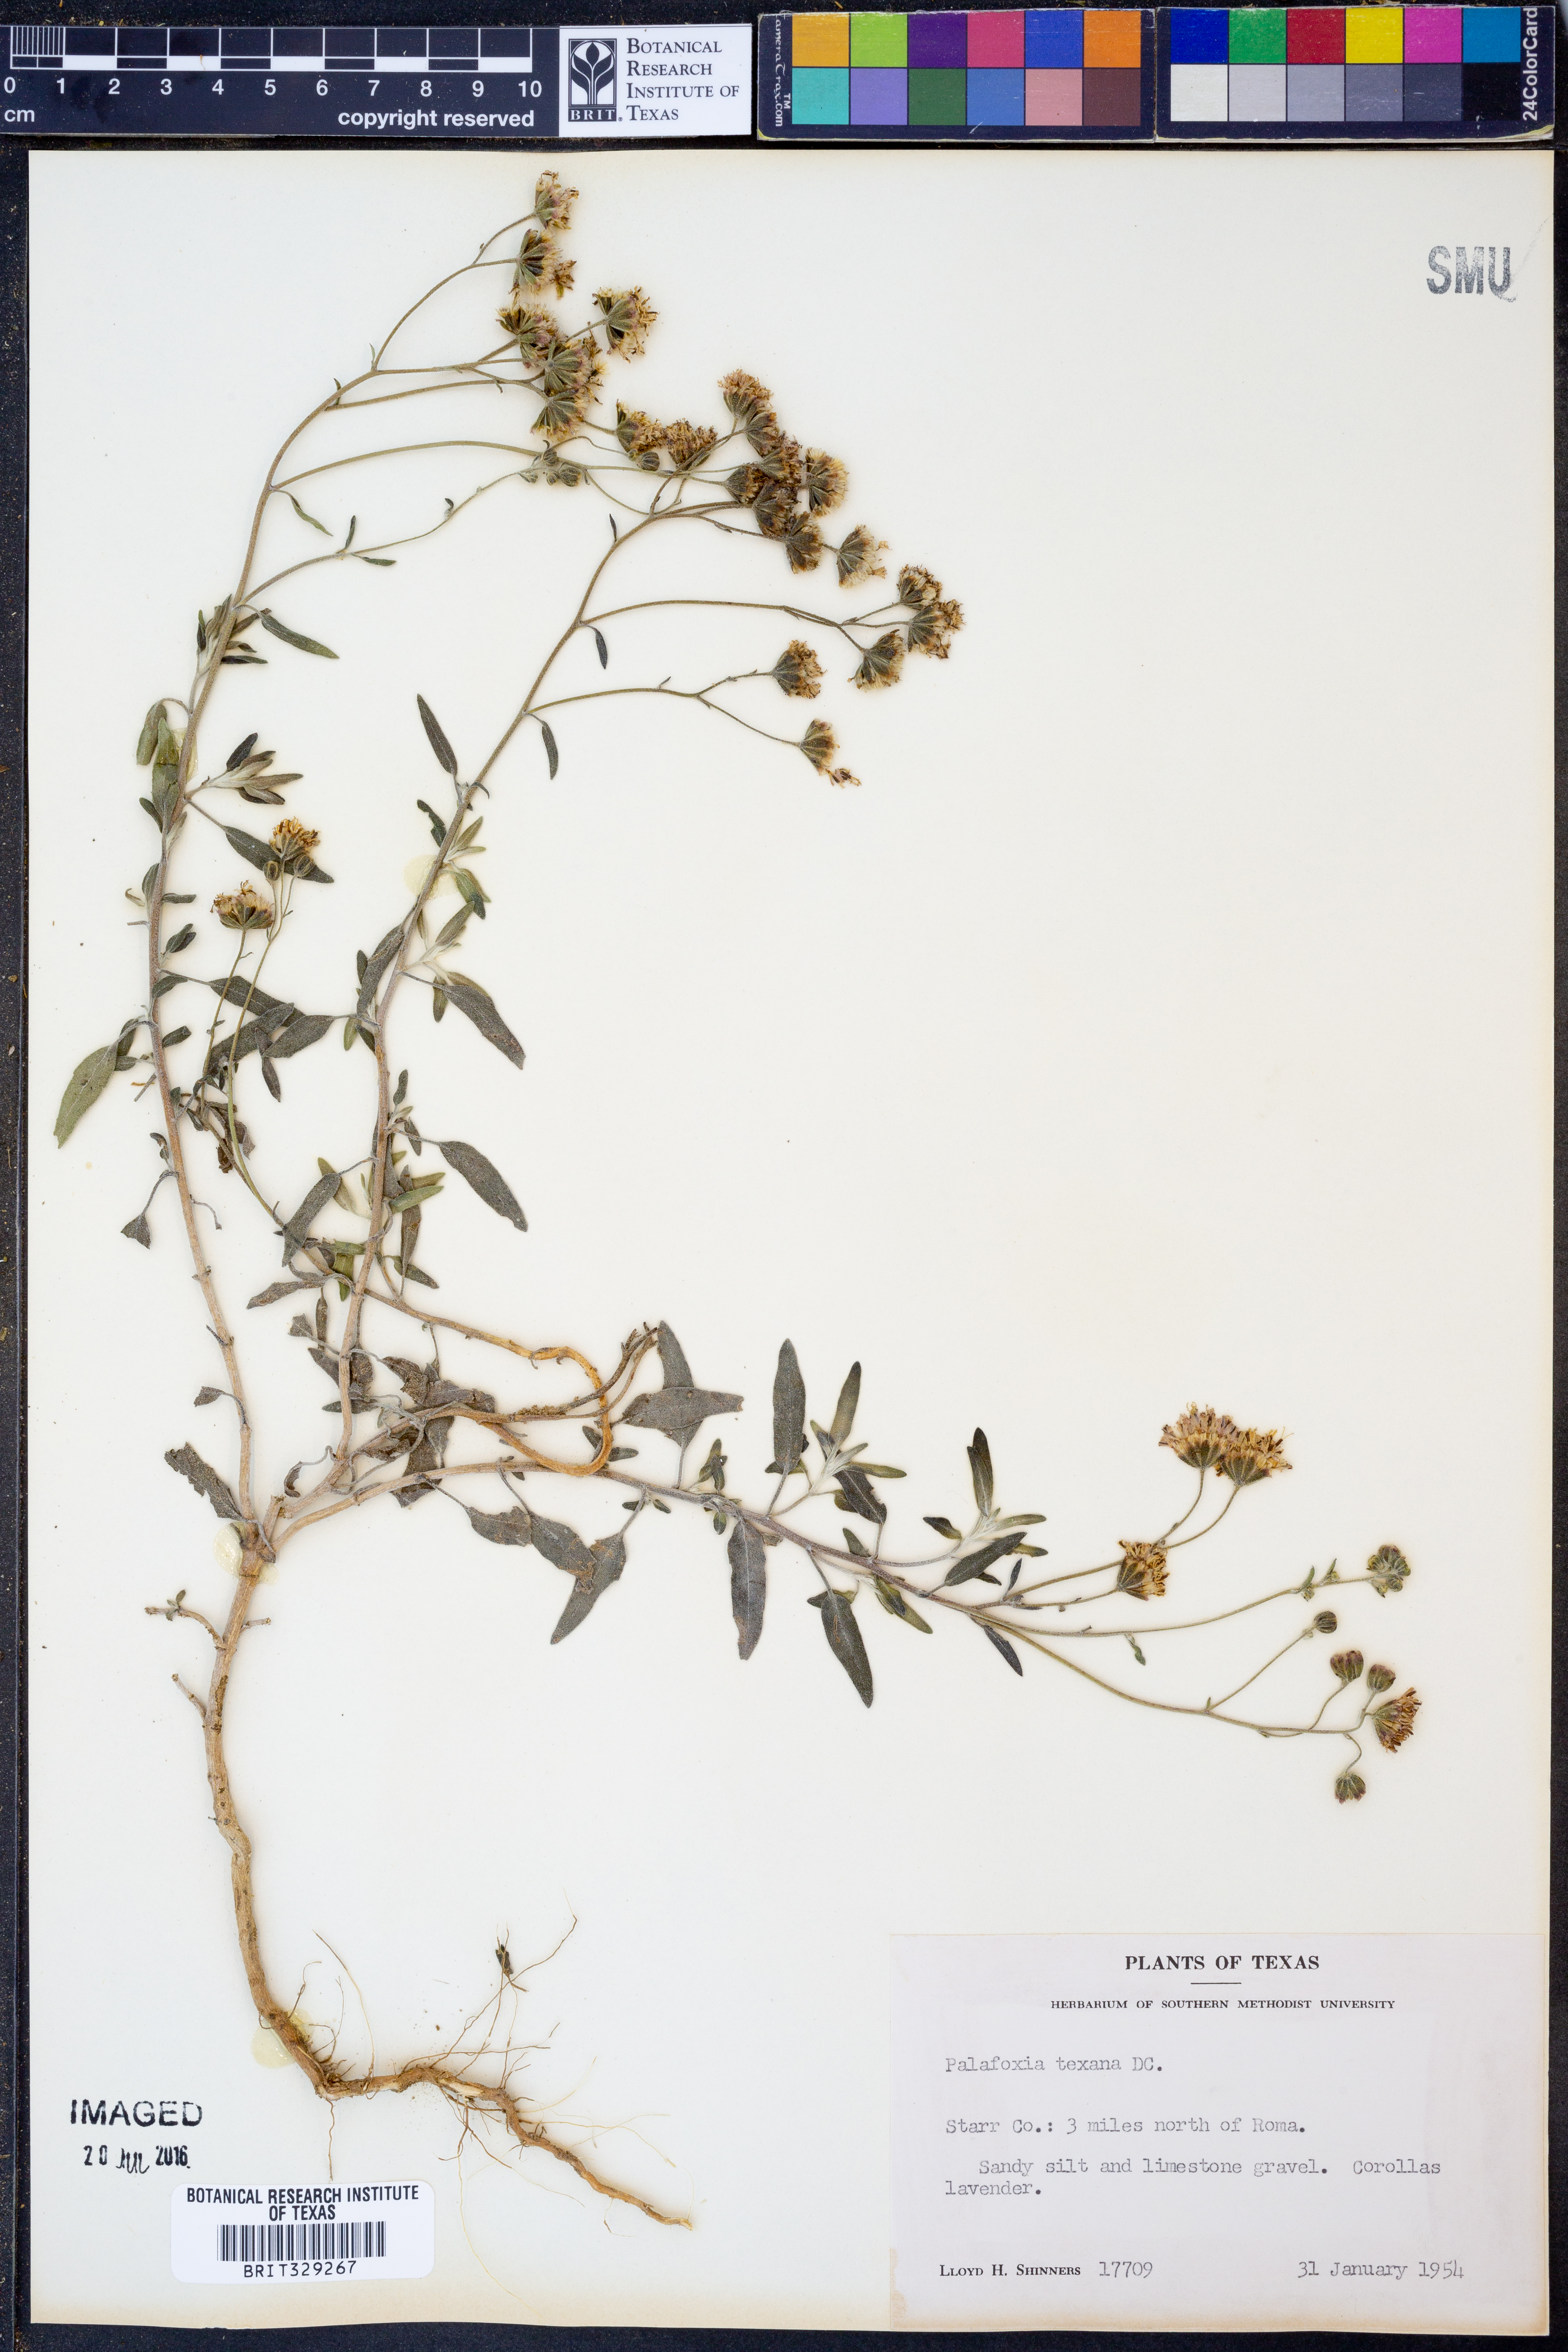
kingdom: Plantae
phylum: Tracheophyta
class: Magnoliopsida
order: Asterales
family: Asteraceae
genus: Palafoxia
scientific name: Palafoxia texana
